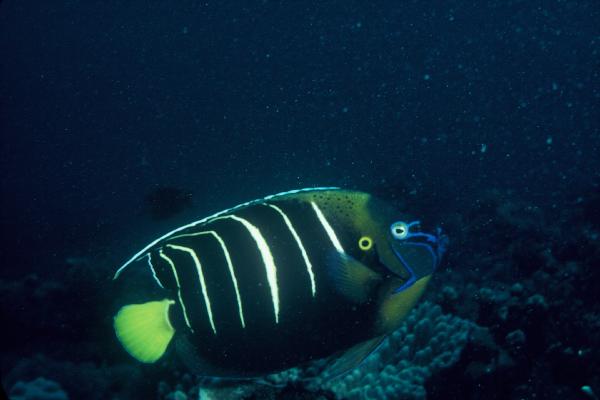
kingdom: Animalia
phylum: Chordata
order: Perciformes
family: Pomacanthidae
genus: Pomacanthus
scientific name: Pomacanthus chrysurus
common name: Goldtail angelfish
